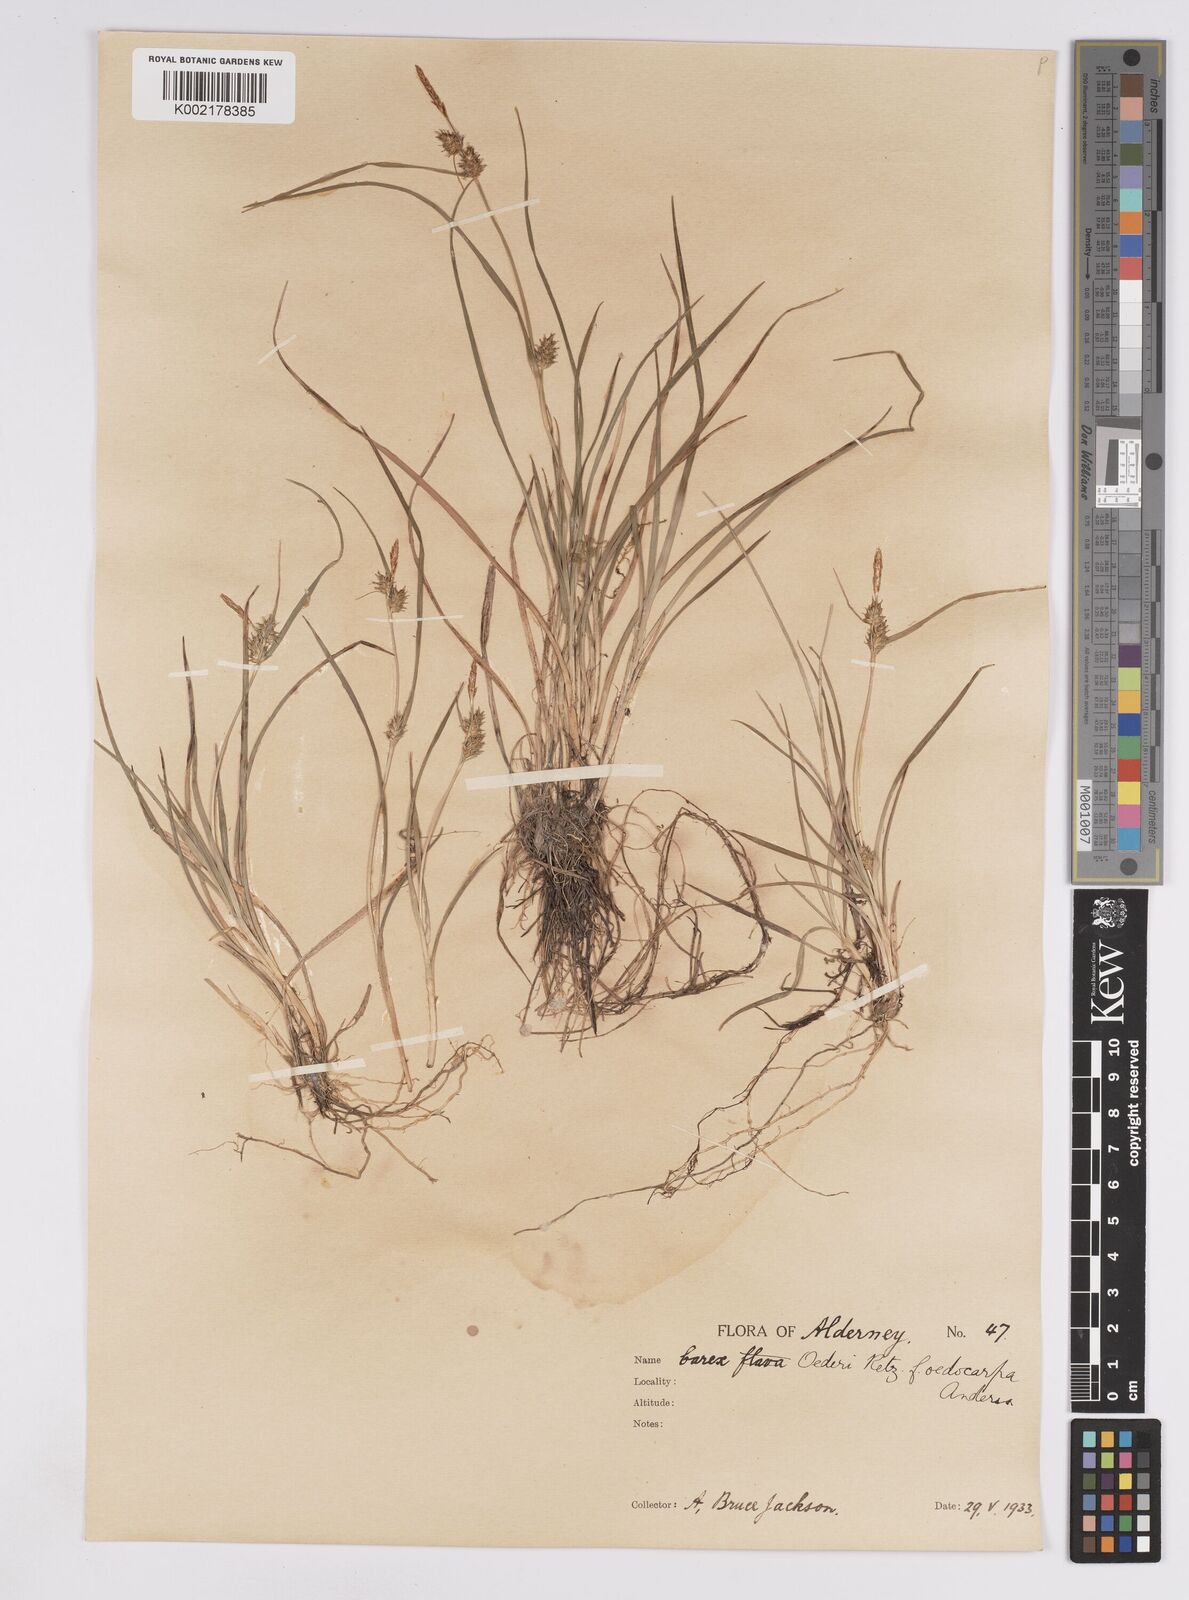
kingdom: Plantae
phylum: Tracheophyta
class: Liliopsida
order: Poales
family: Cyperaceae
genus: Carex
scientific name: Carex demissa
